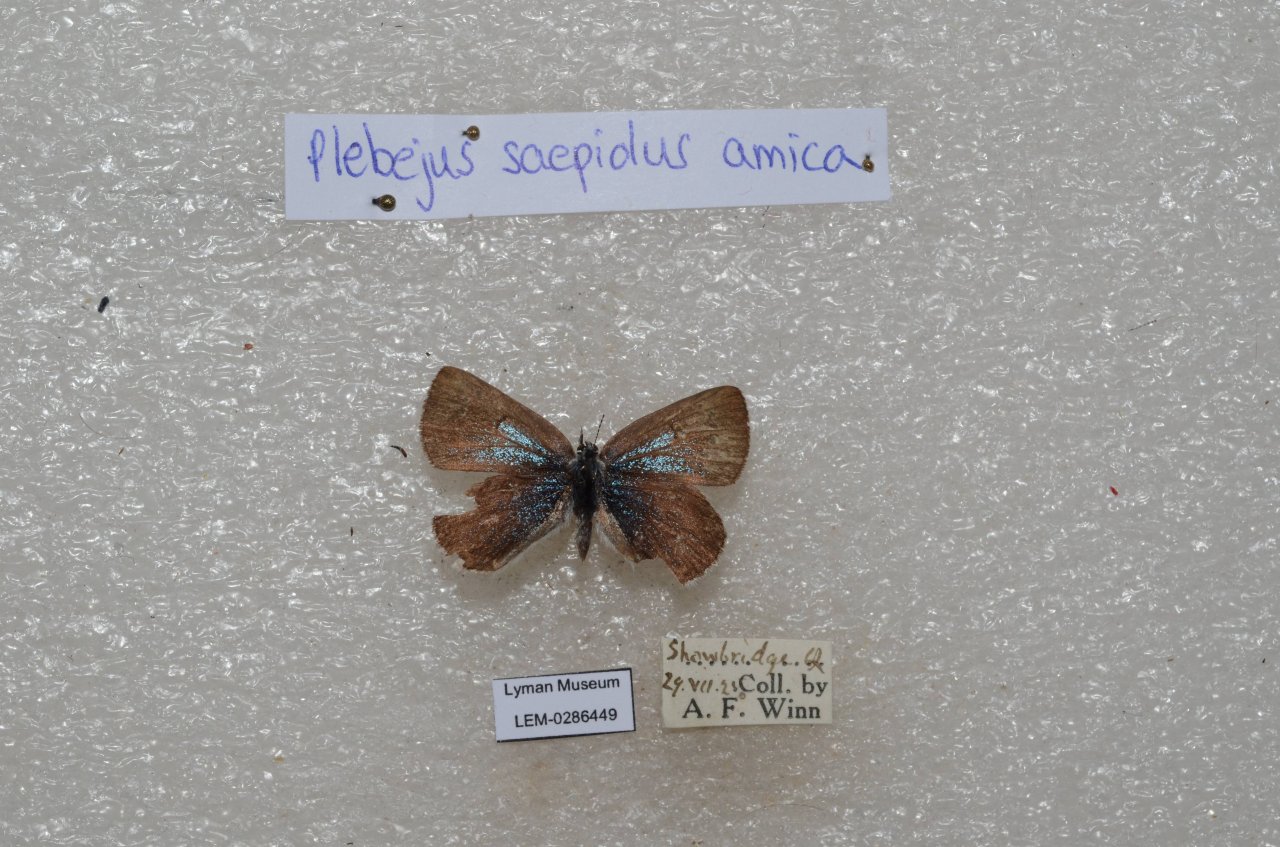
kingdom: Animalia
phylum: Arthropoda
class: Insecta
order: Lepidoptera
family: Lycaenidae
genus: Plebejus
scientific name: Plebejus saepiolus
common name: Greenish Blue
